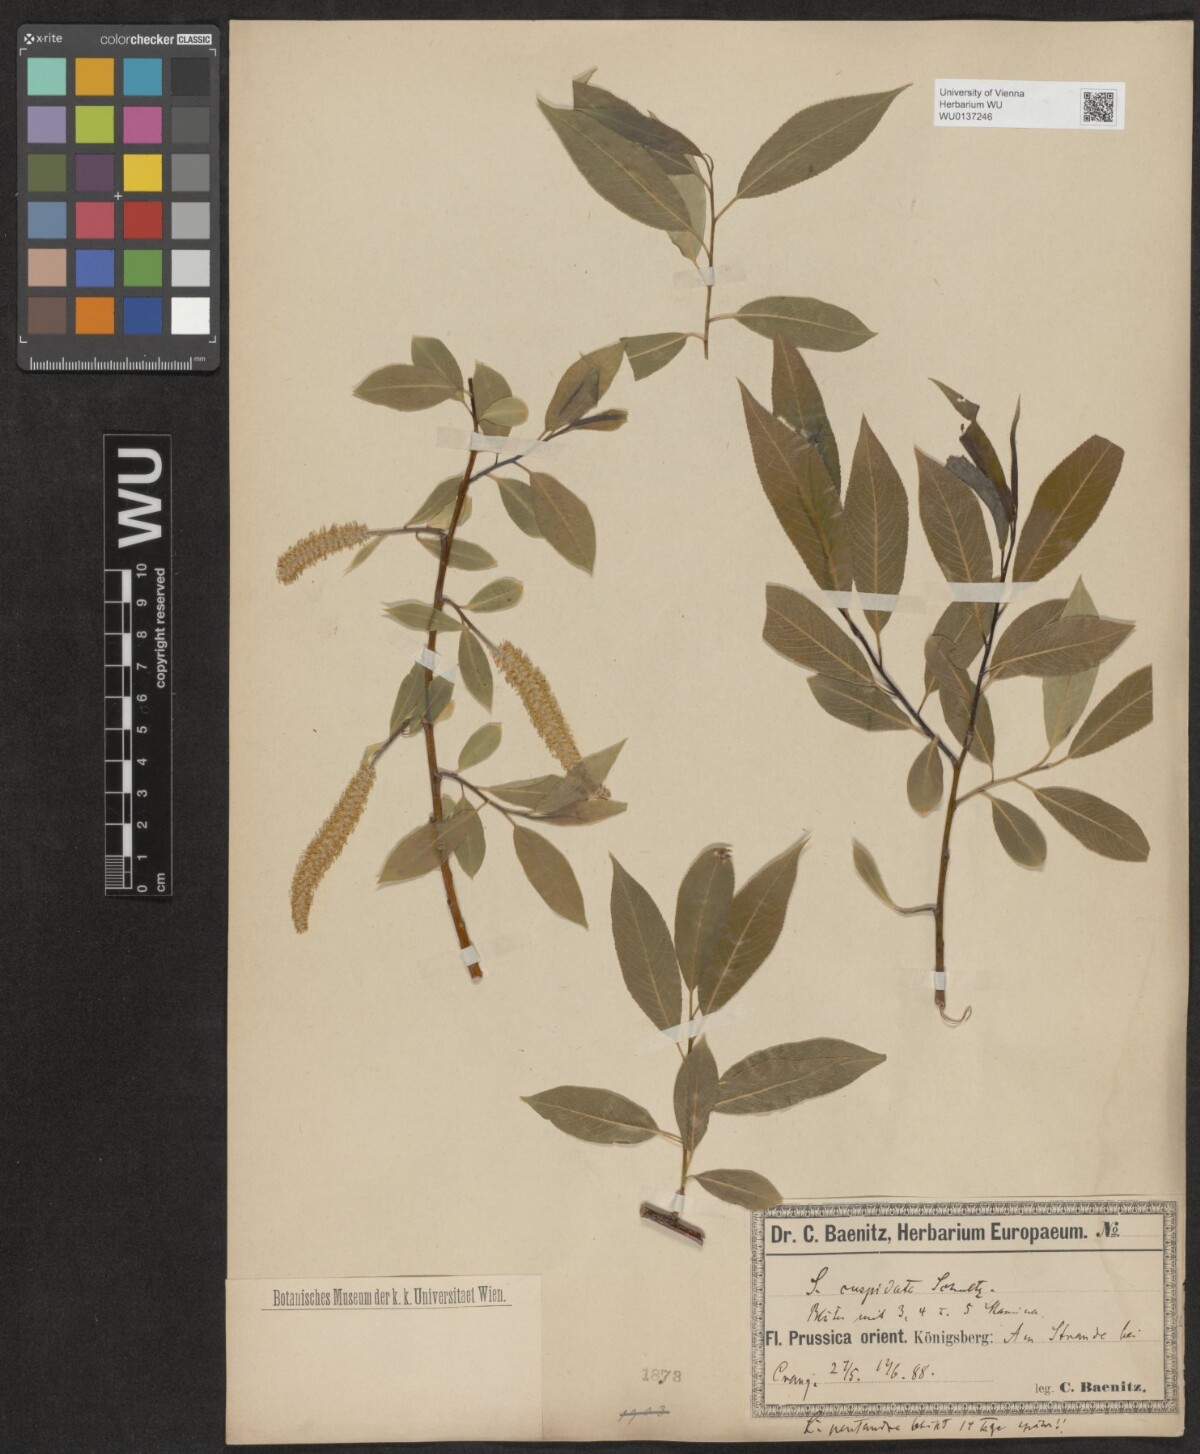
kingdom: Plantae
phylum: Tracheophyta
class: Magnoliopsida
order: Malpighiales
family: Salicaceae
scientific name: Salicaceae
